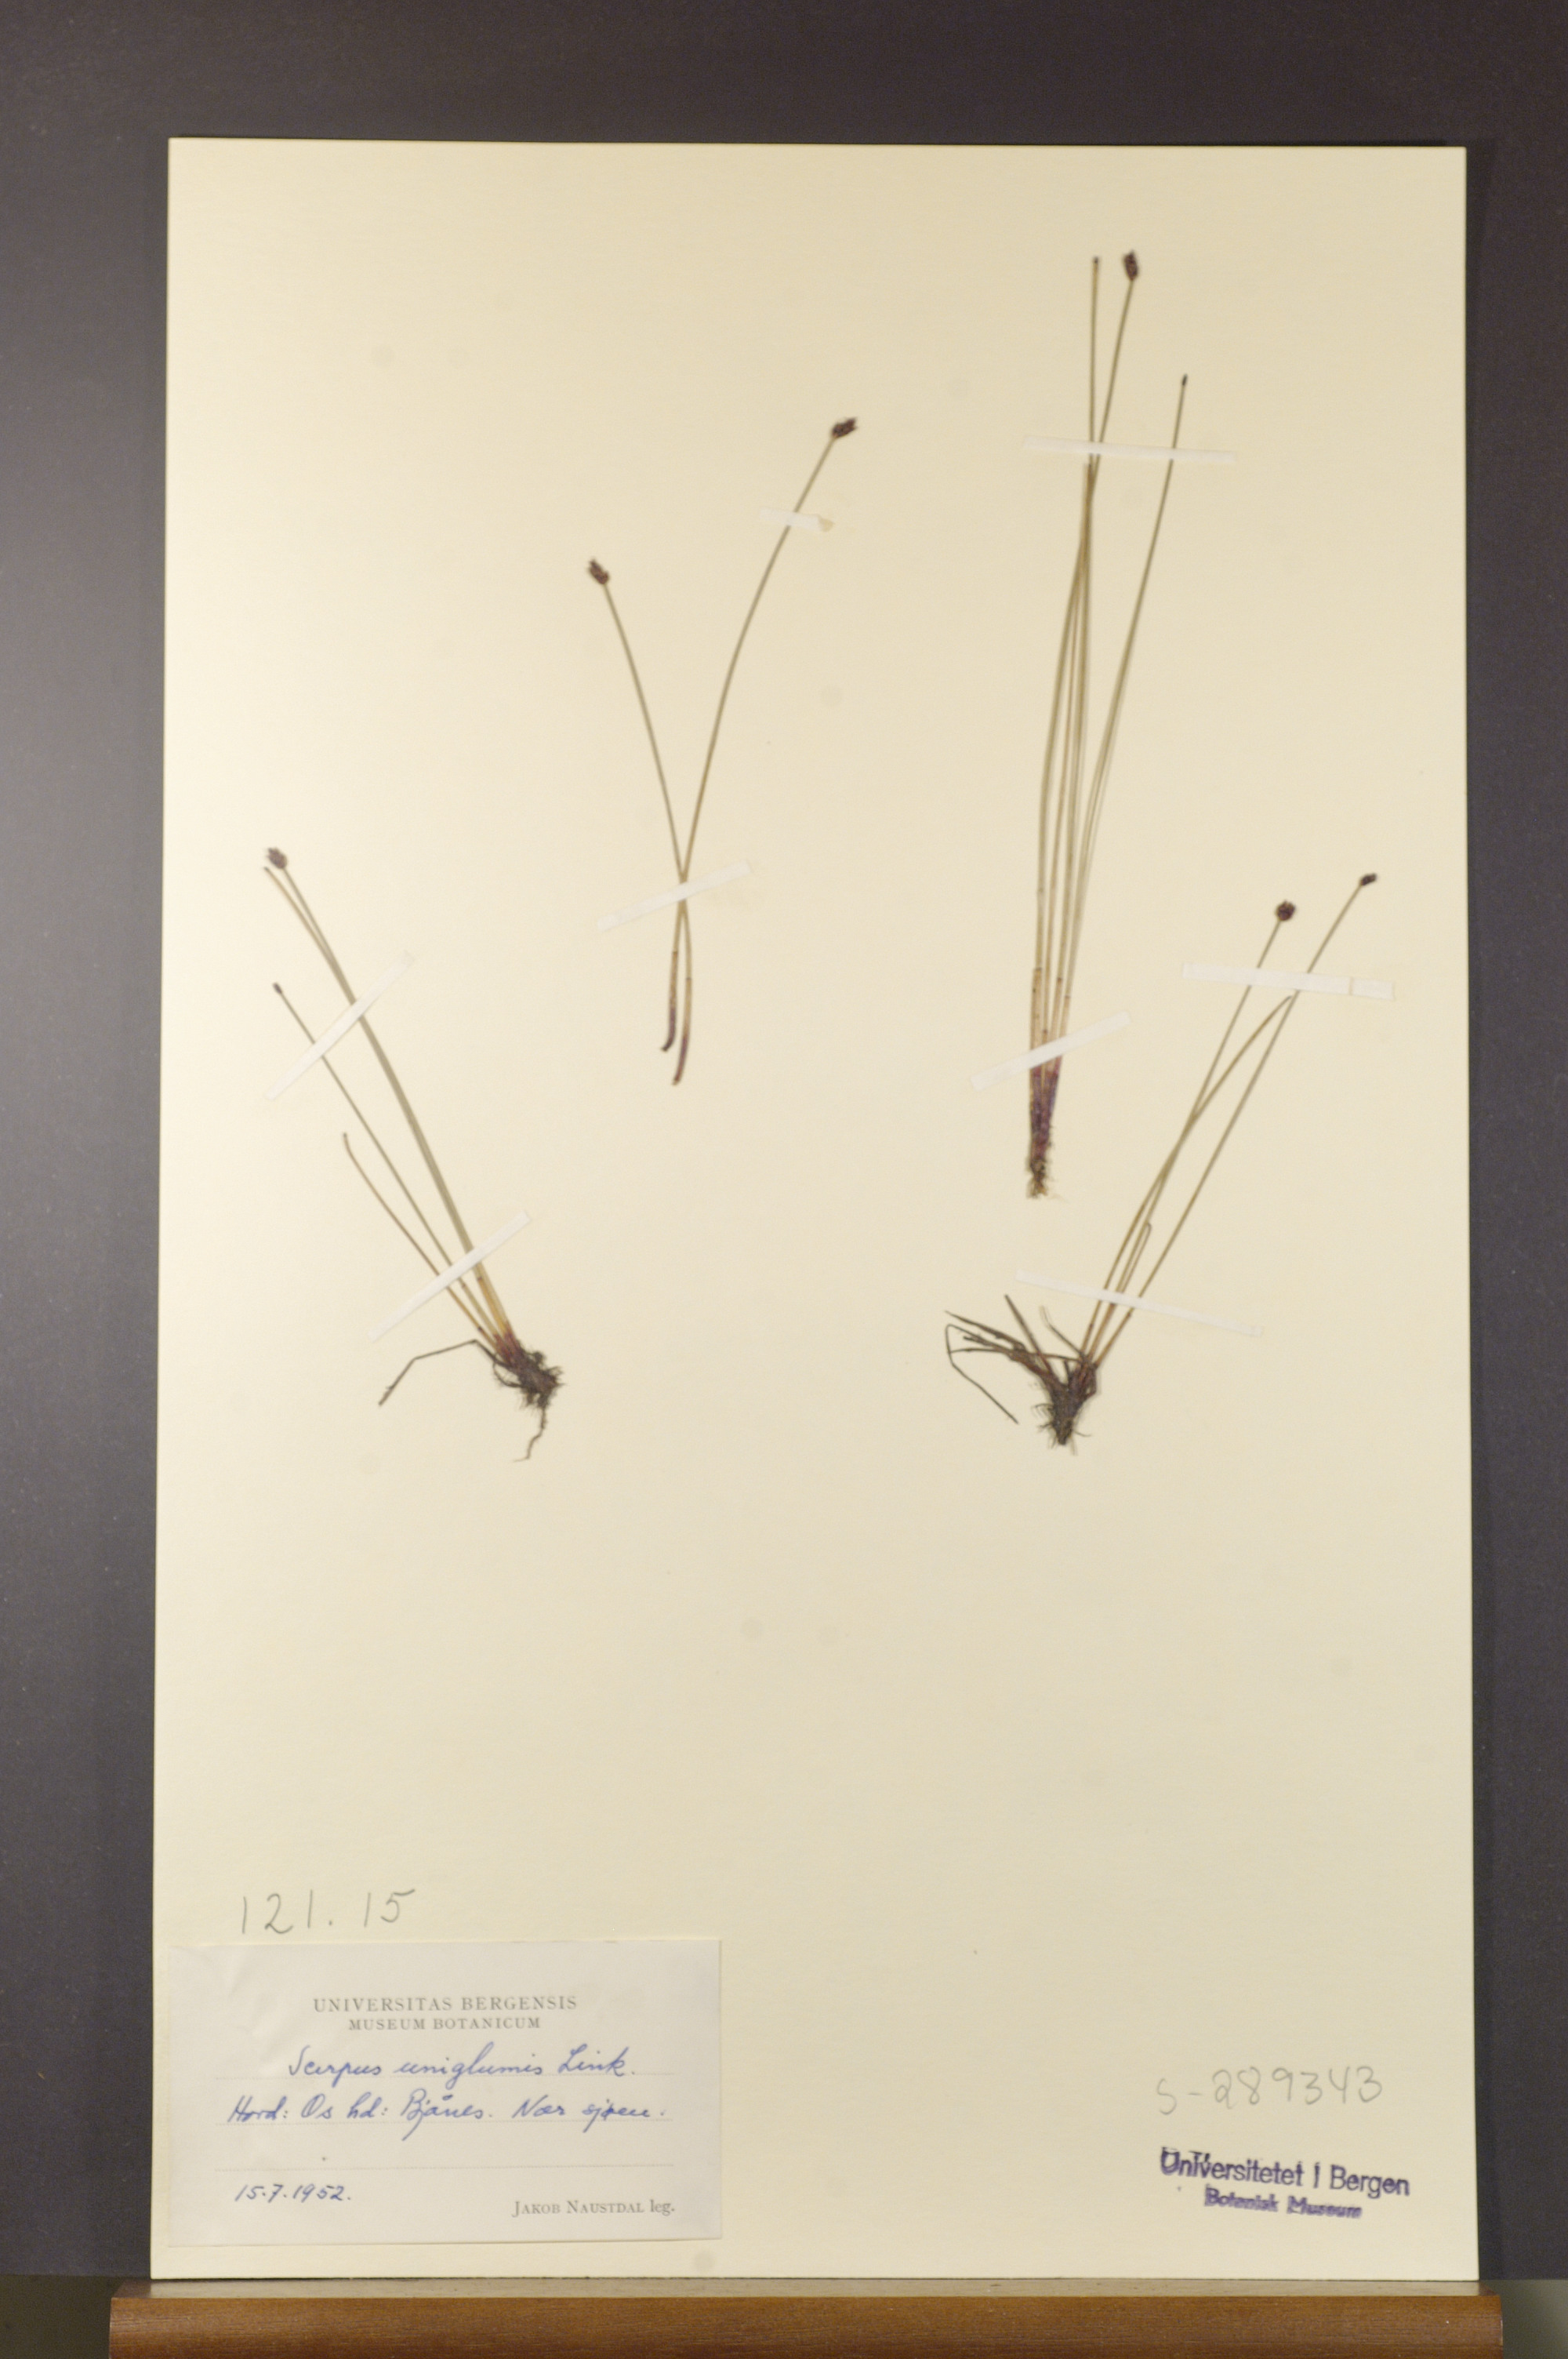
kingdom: Plantae
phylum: Tracheophyta
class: Liliopsida
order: Poales
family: Cyperaceae
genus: Eleocharis
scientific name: Eleocharis uniglumis
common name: Slender spike-rush
